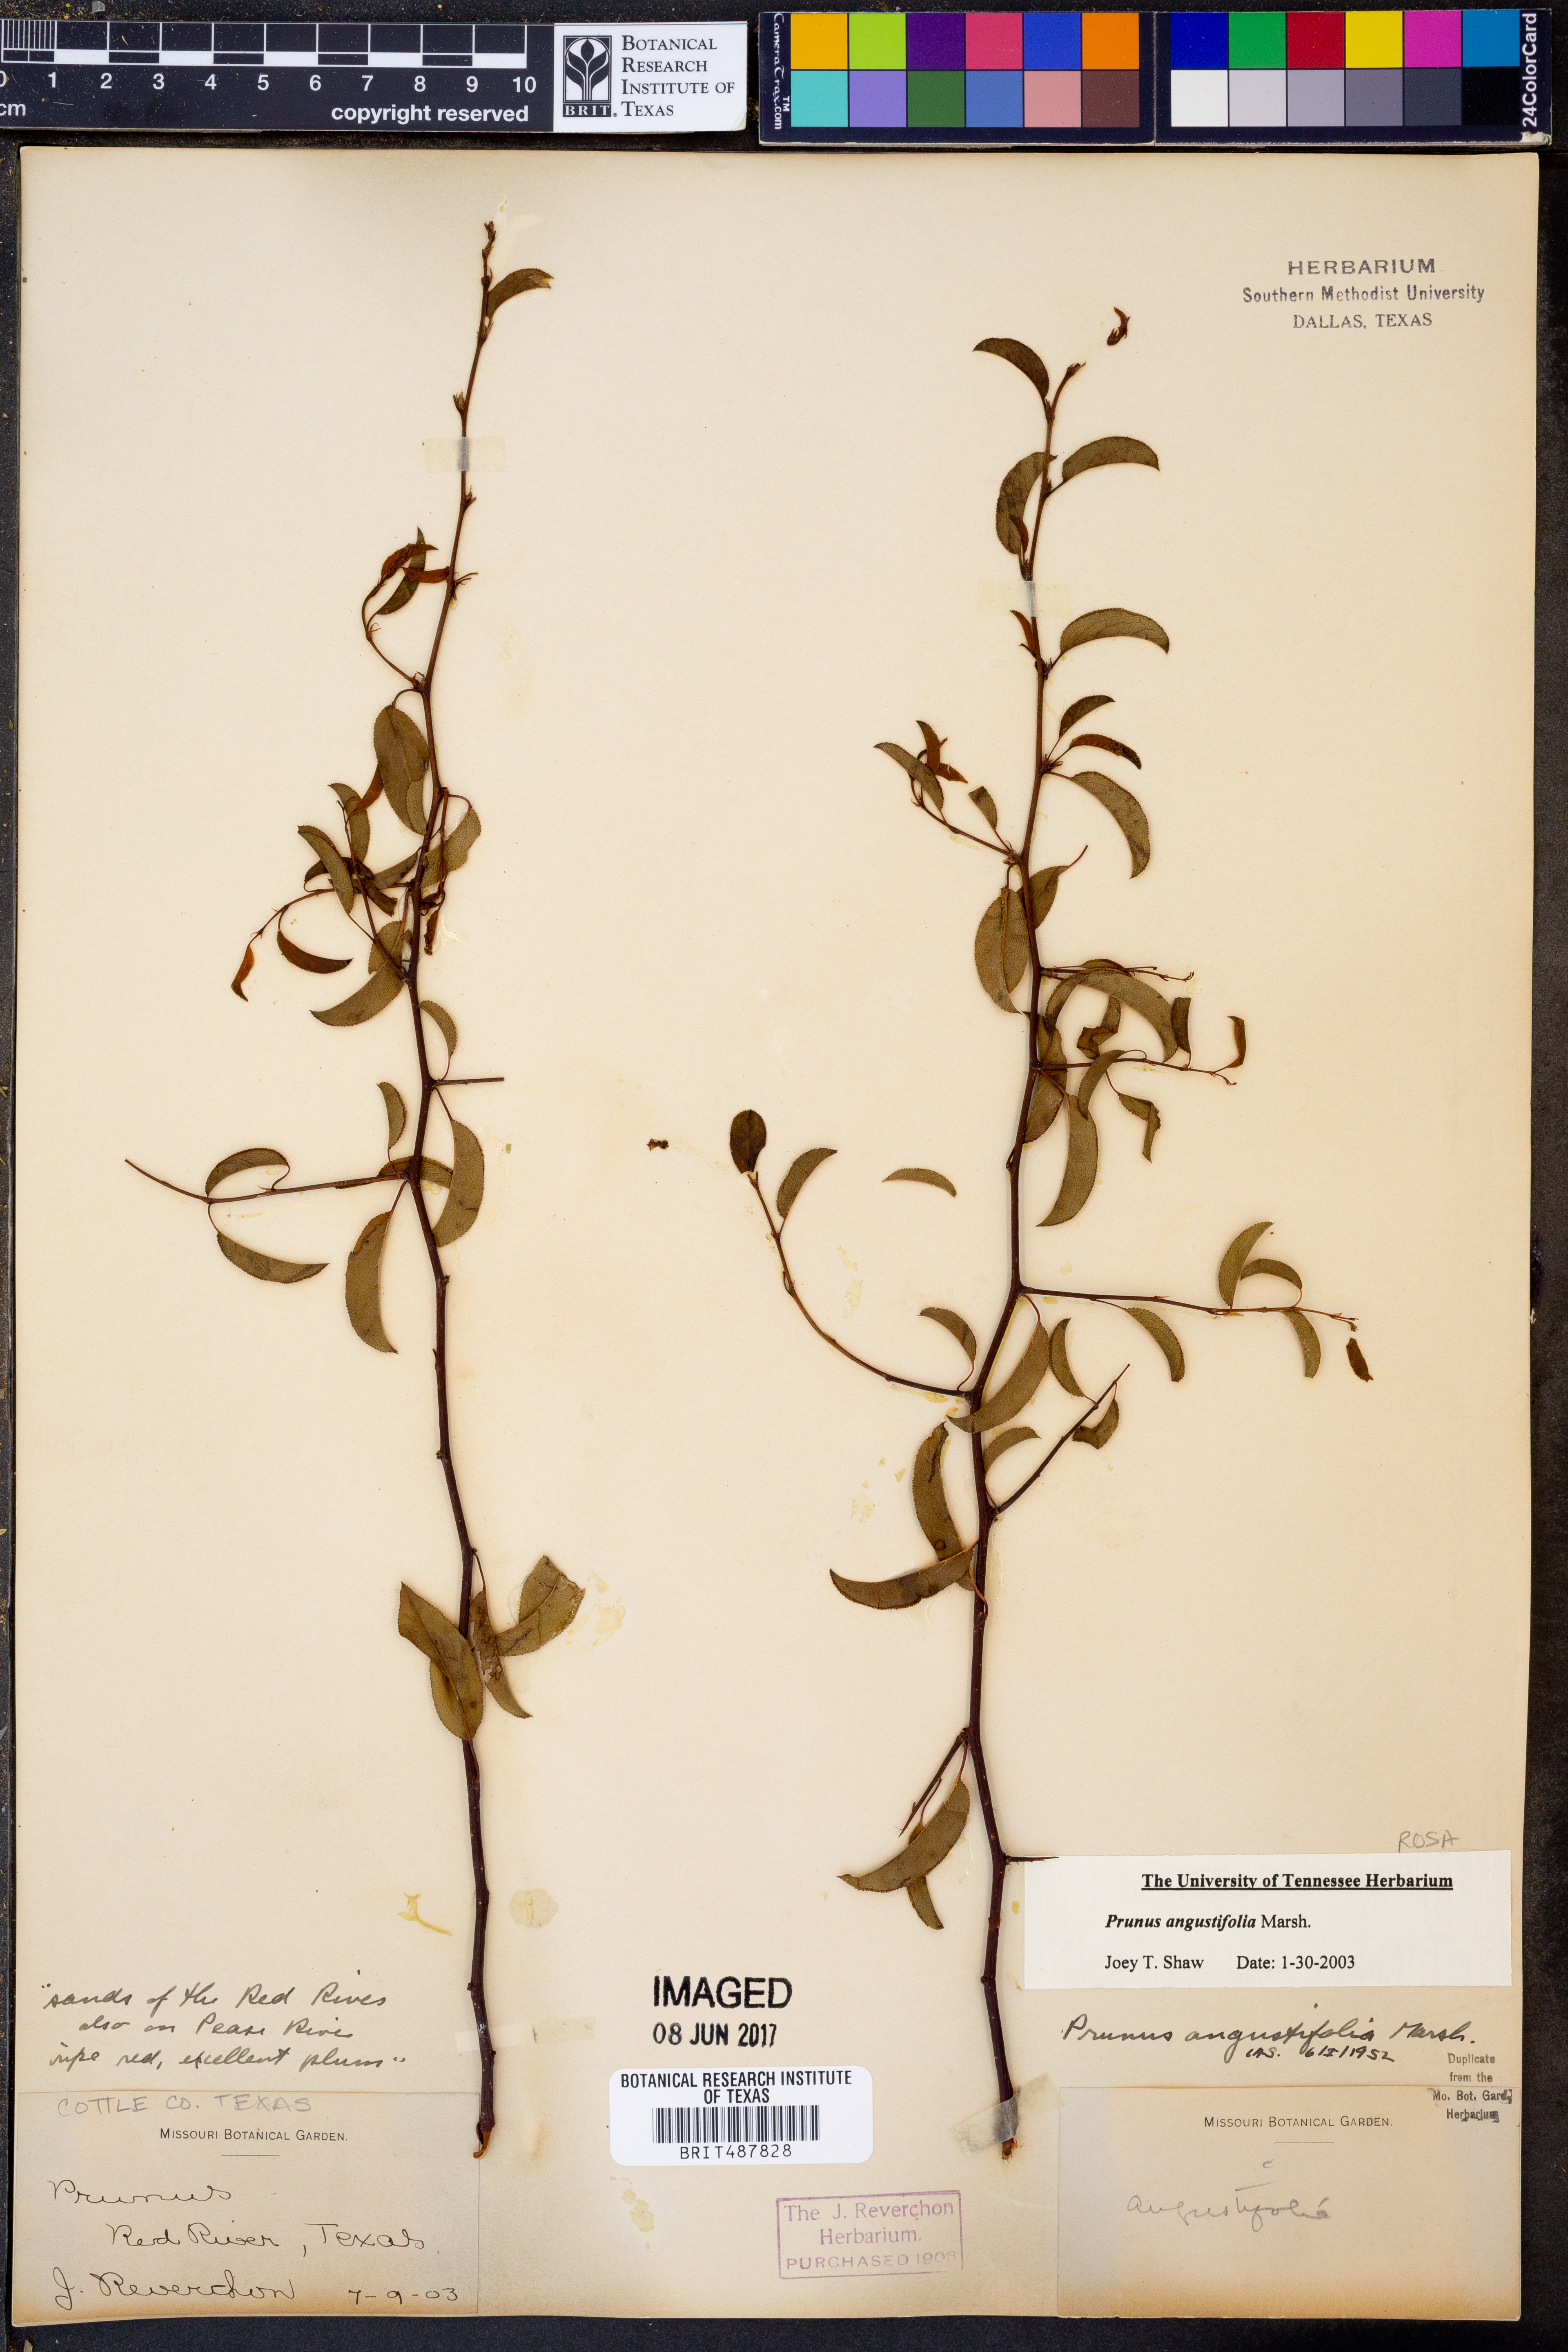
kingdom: Plantae
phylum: Tracheophyta
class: Magnoliopsida
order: Rosales
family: Rosaceae
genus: Prunus
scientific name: Prunus angustifolia
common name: Cherokee plum
